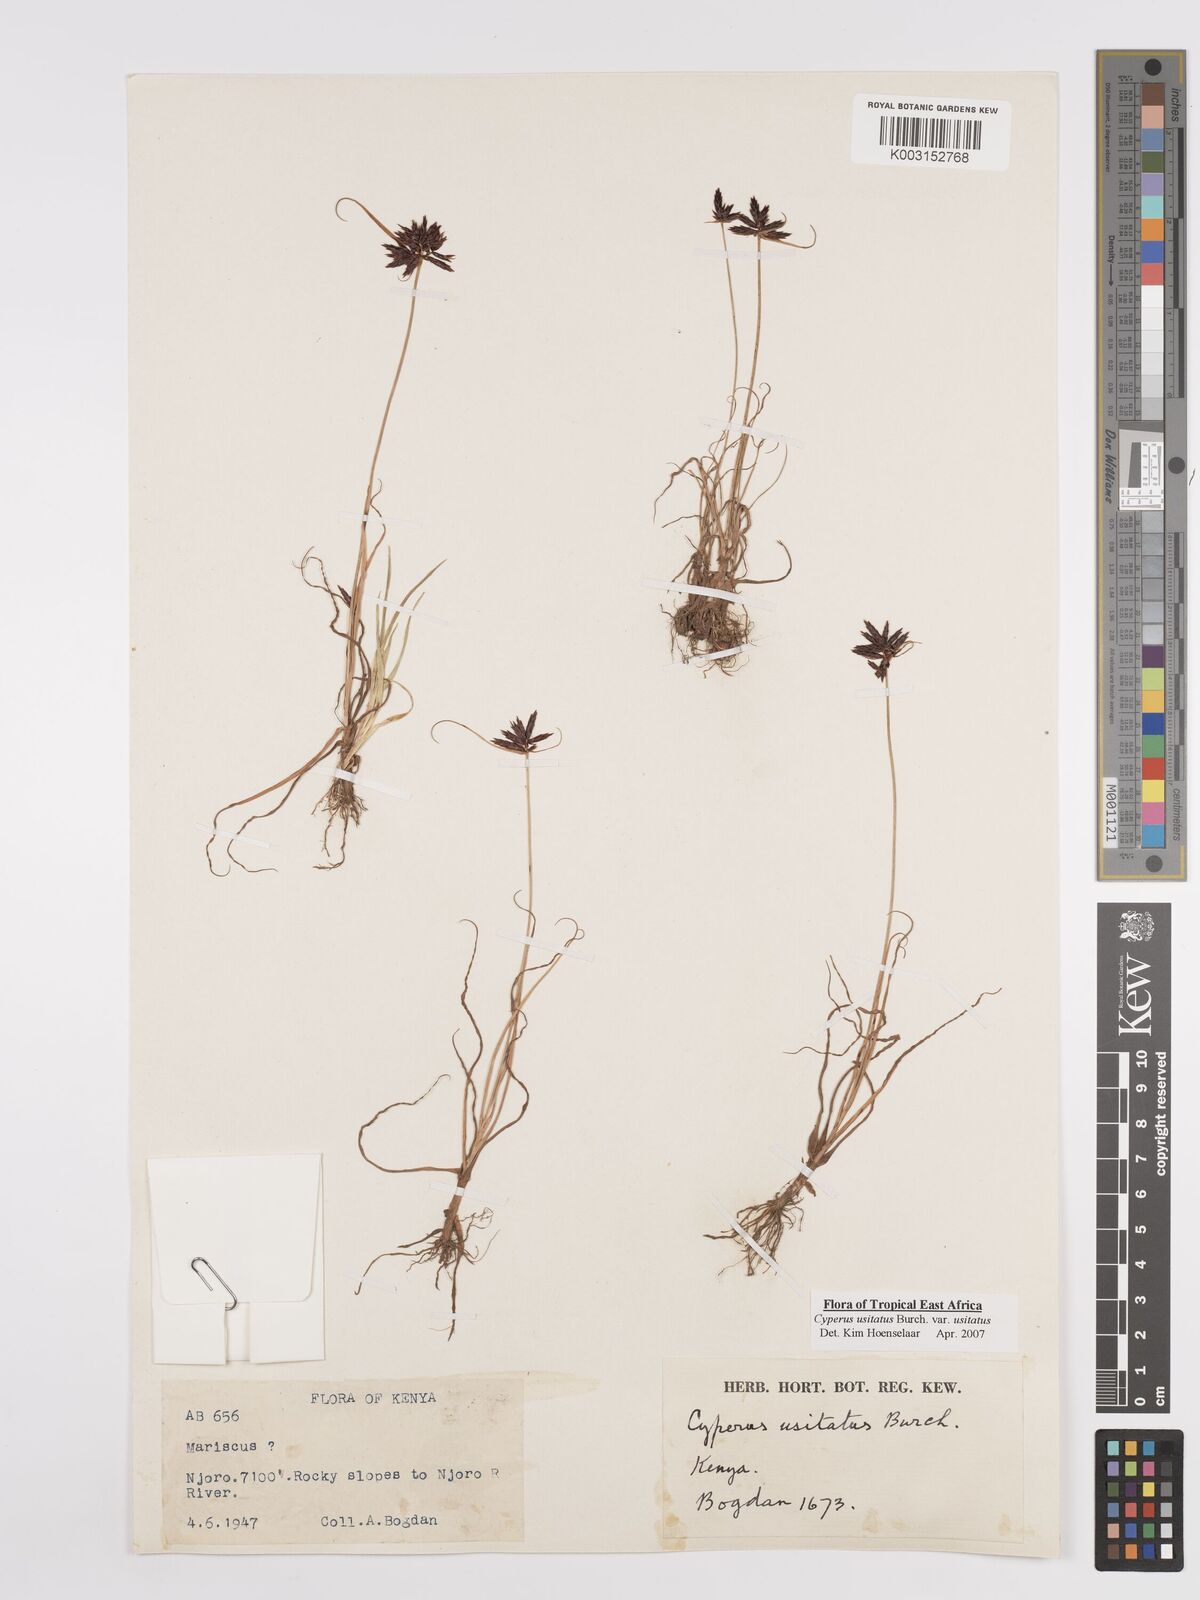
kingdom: Plantae
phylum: Tracheophyta
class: Liliopsida
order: Poales
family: Cyperaceae
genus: Cyperus
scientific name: Cyperus usitatus
